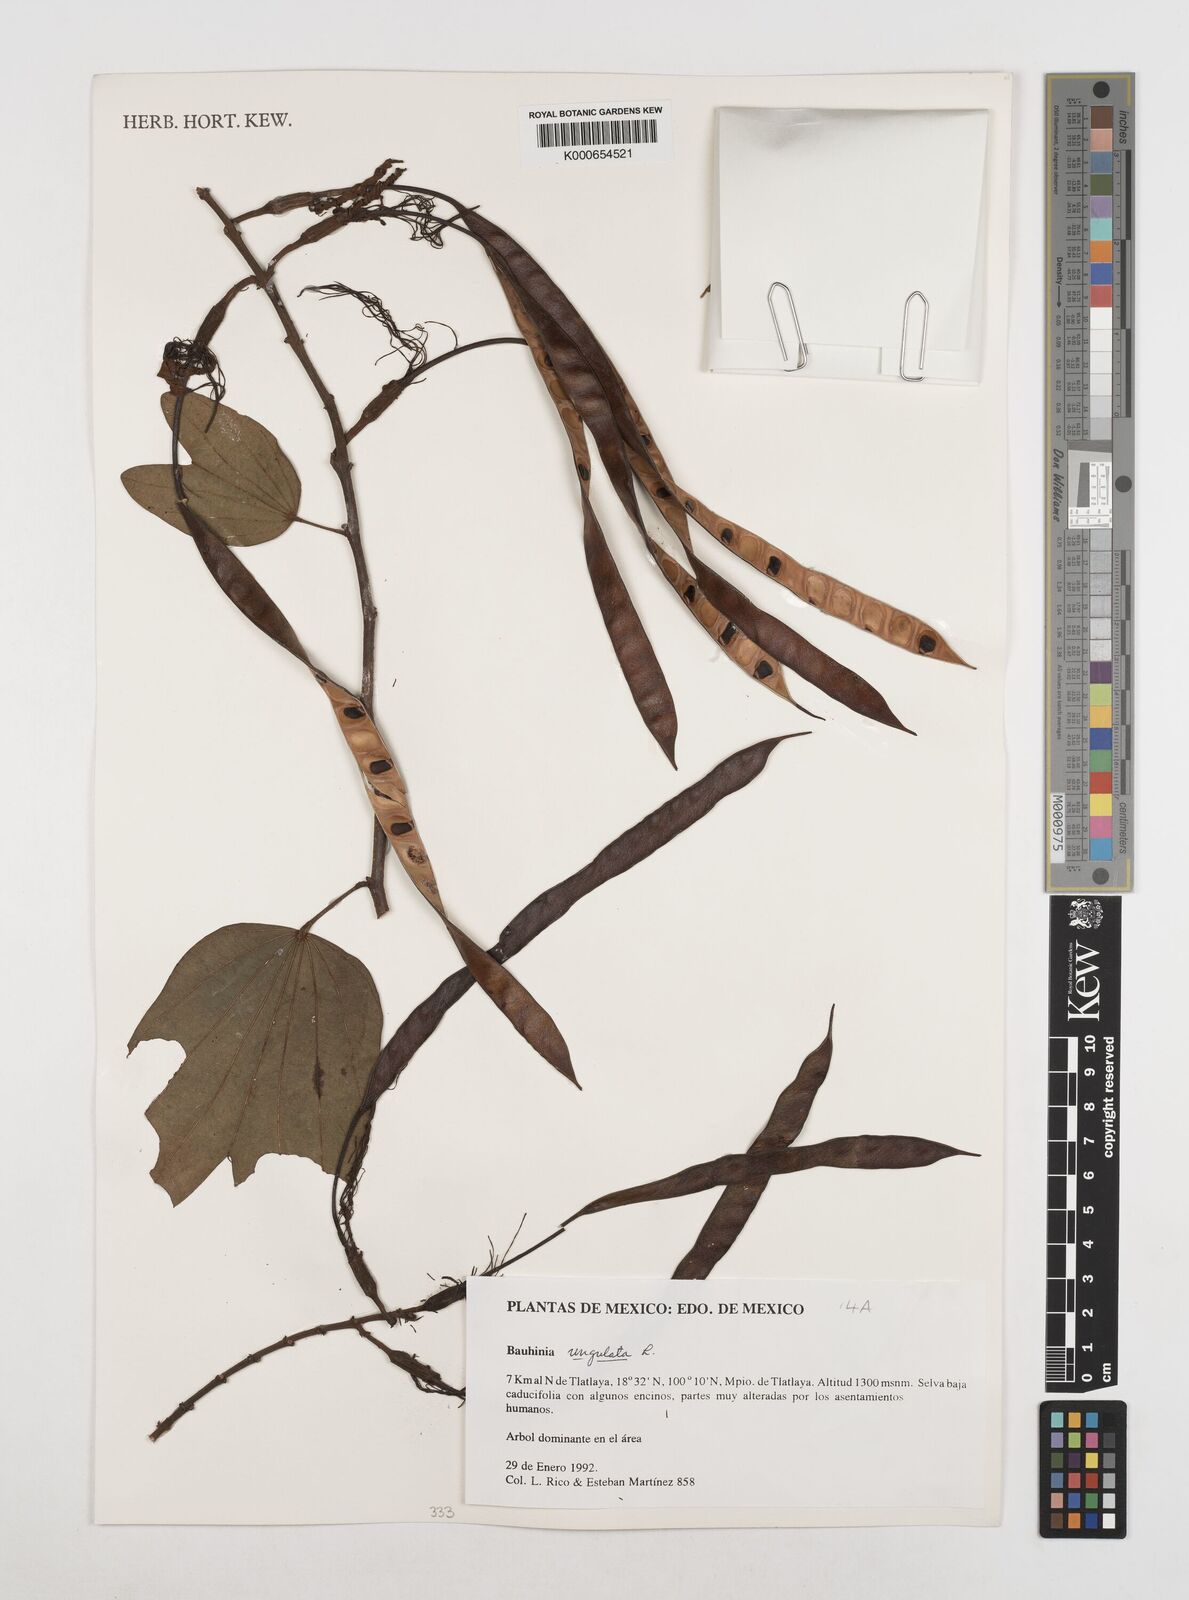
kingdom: Plantae
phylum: Tracheophyta
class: Magnoliopsida
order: Fabales
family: Fabaceae
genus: Bauhinia
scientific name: Bauhinia ungulata
